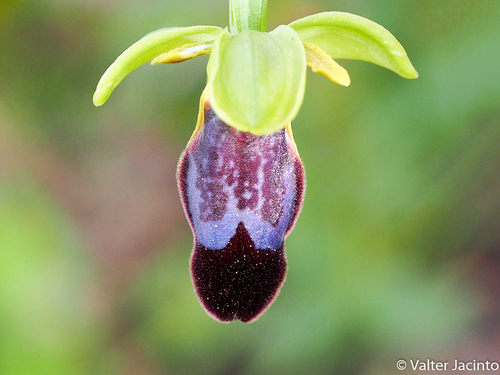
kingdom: Plantae
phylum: Tracheophyta
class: Liliopsida
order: Asparagales
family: Orchidaceae
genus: Ophrys
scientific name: Ophrys fusca
